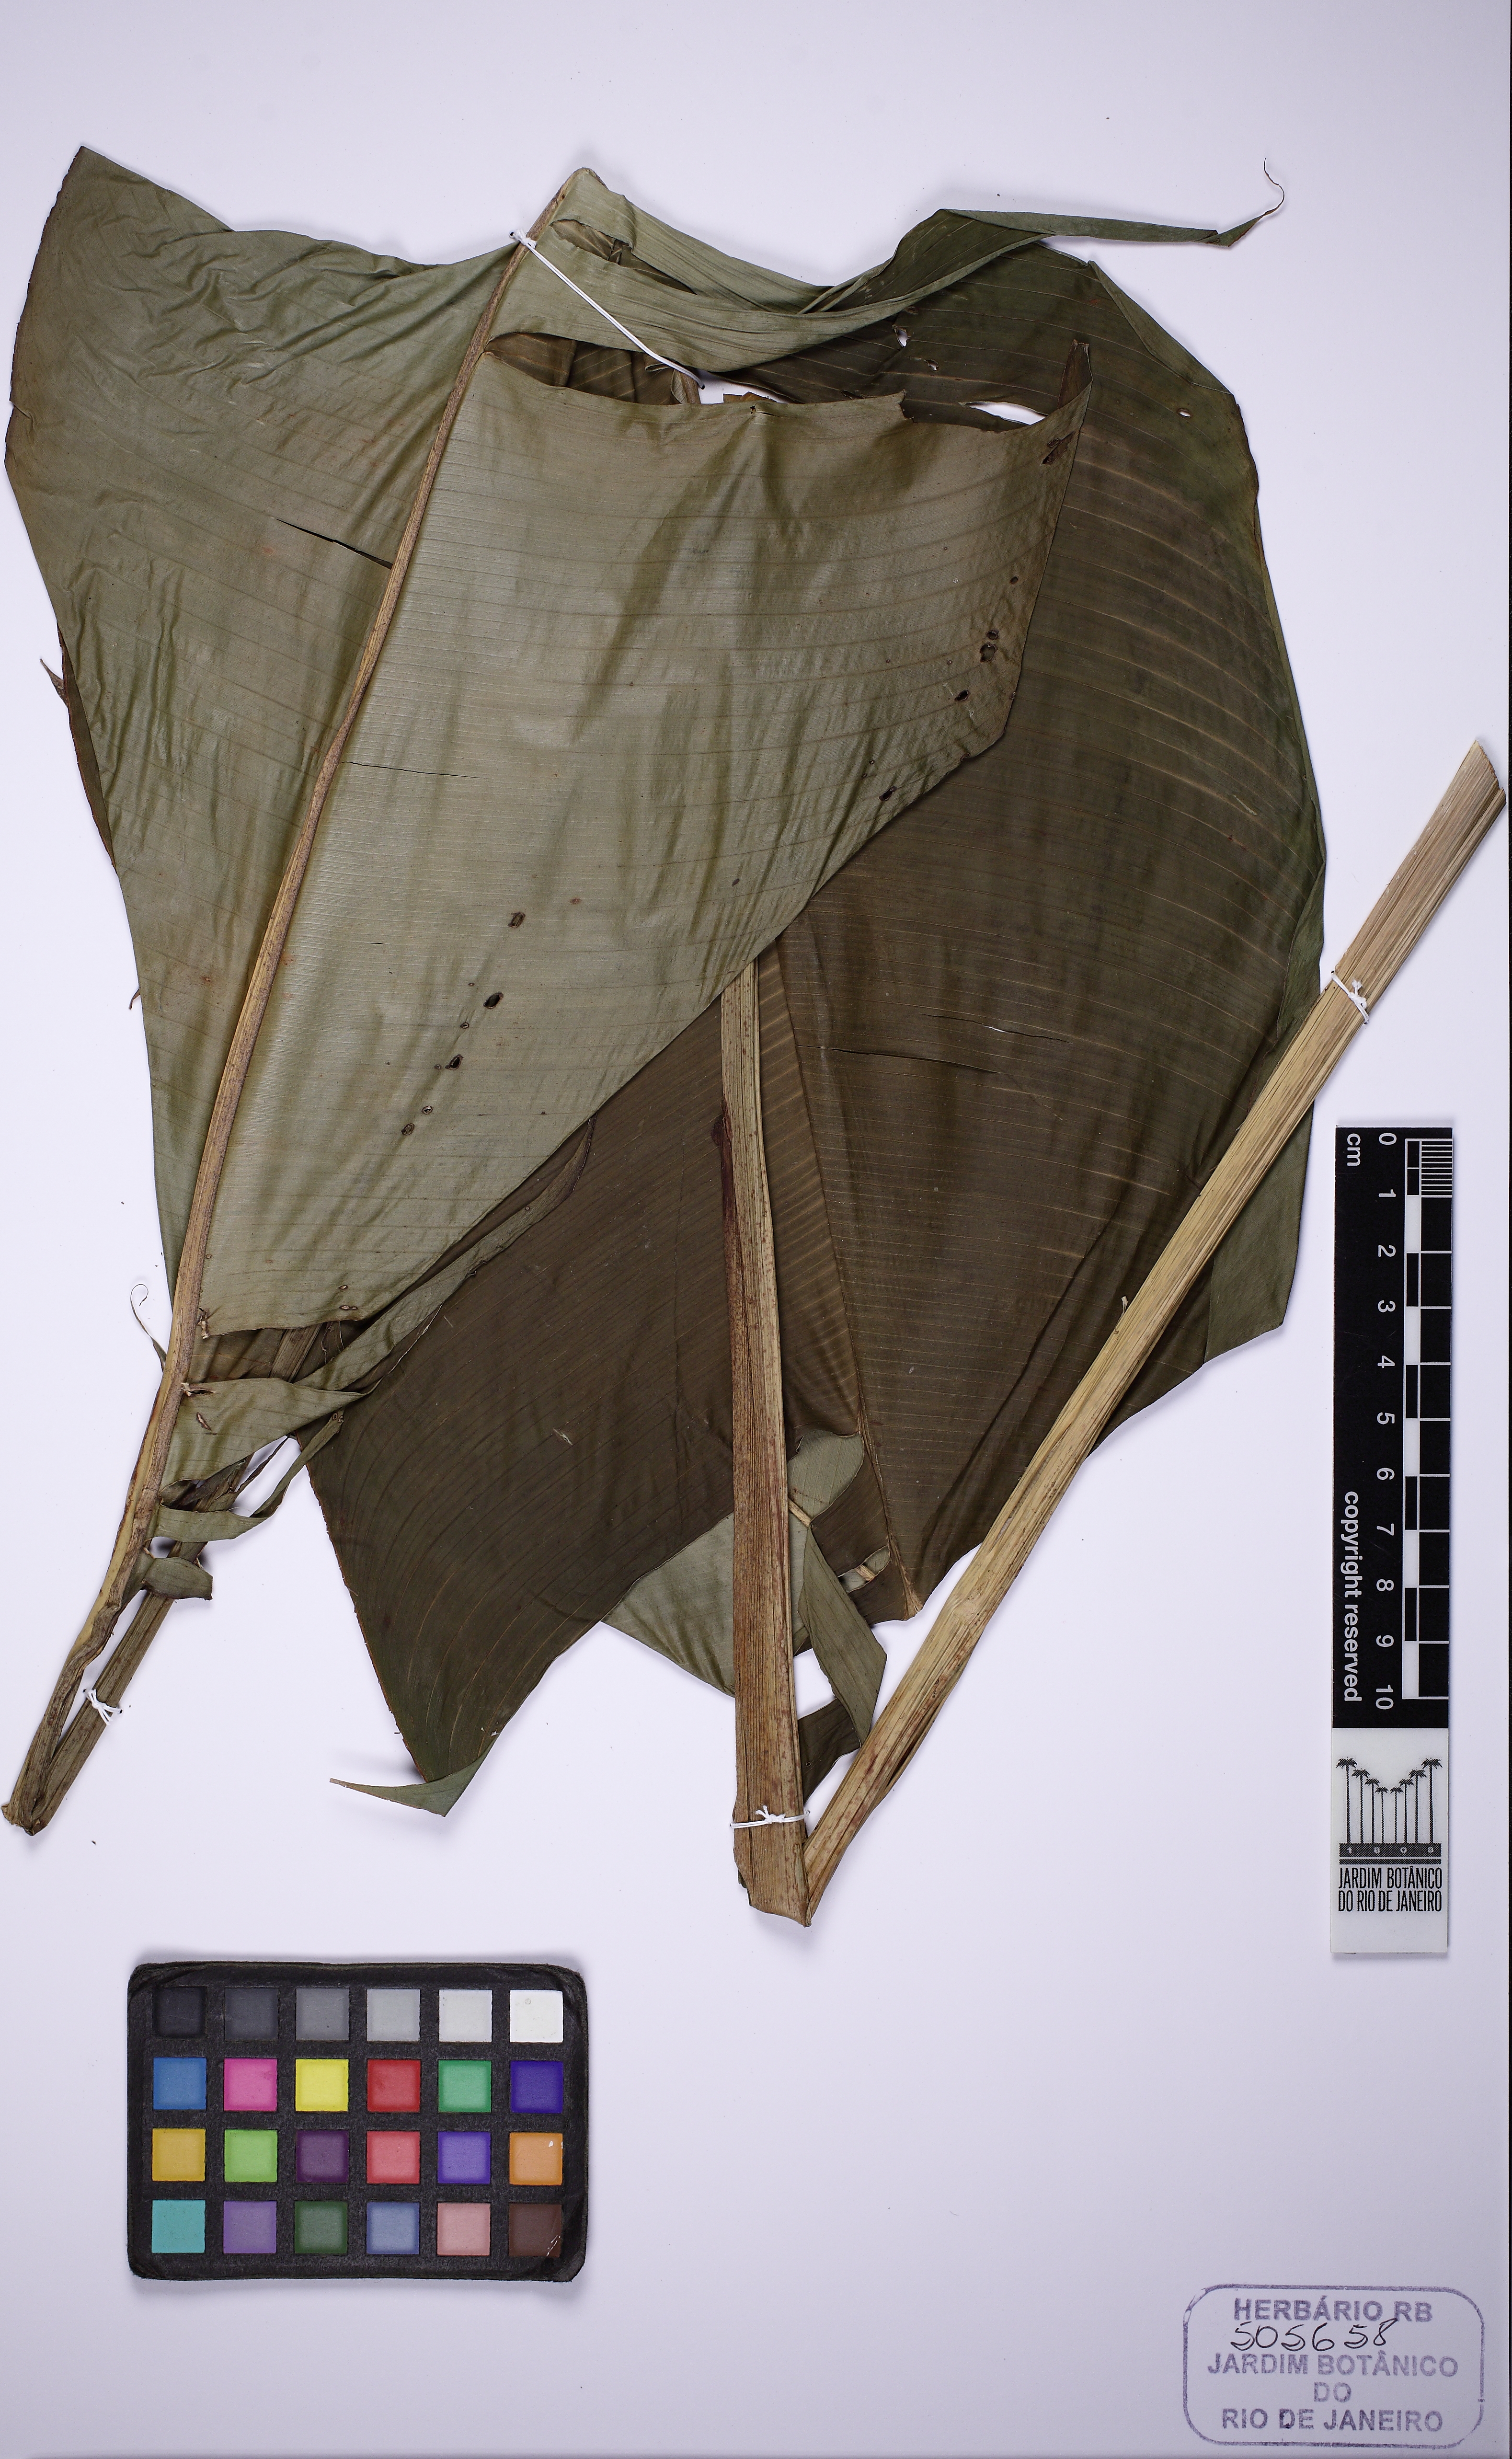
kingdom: Plantae
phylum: Tracheophyta
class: Liliopsida
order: Zingiberales
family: Heliconiaceae
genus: Heliconia
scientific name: Heliconia spathocircinata
